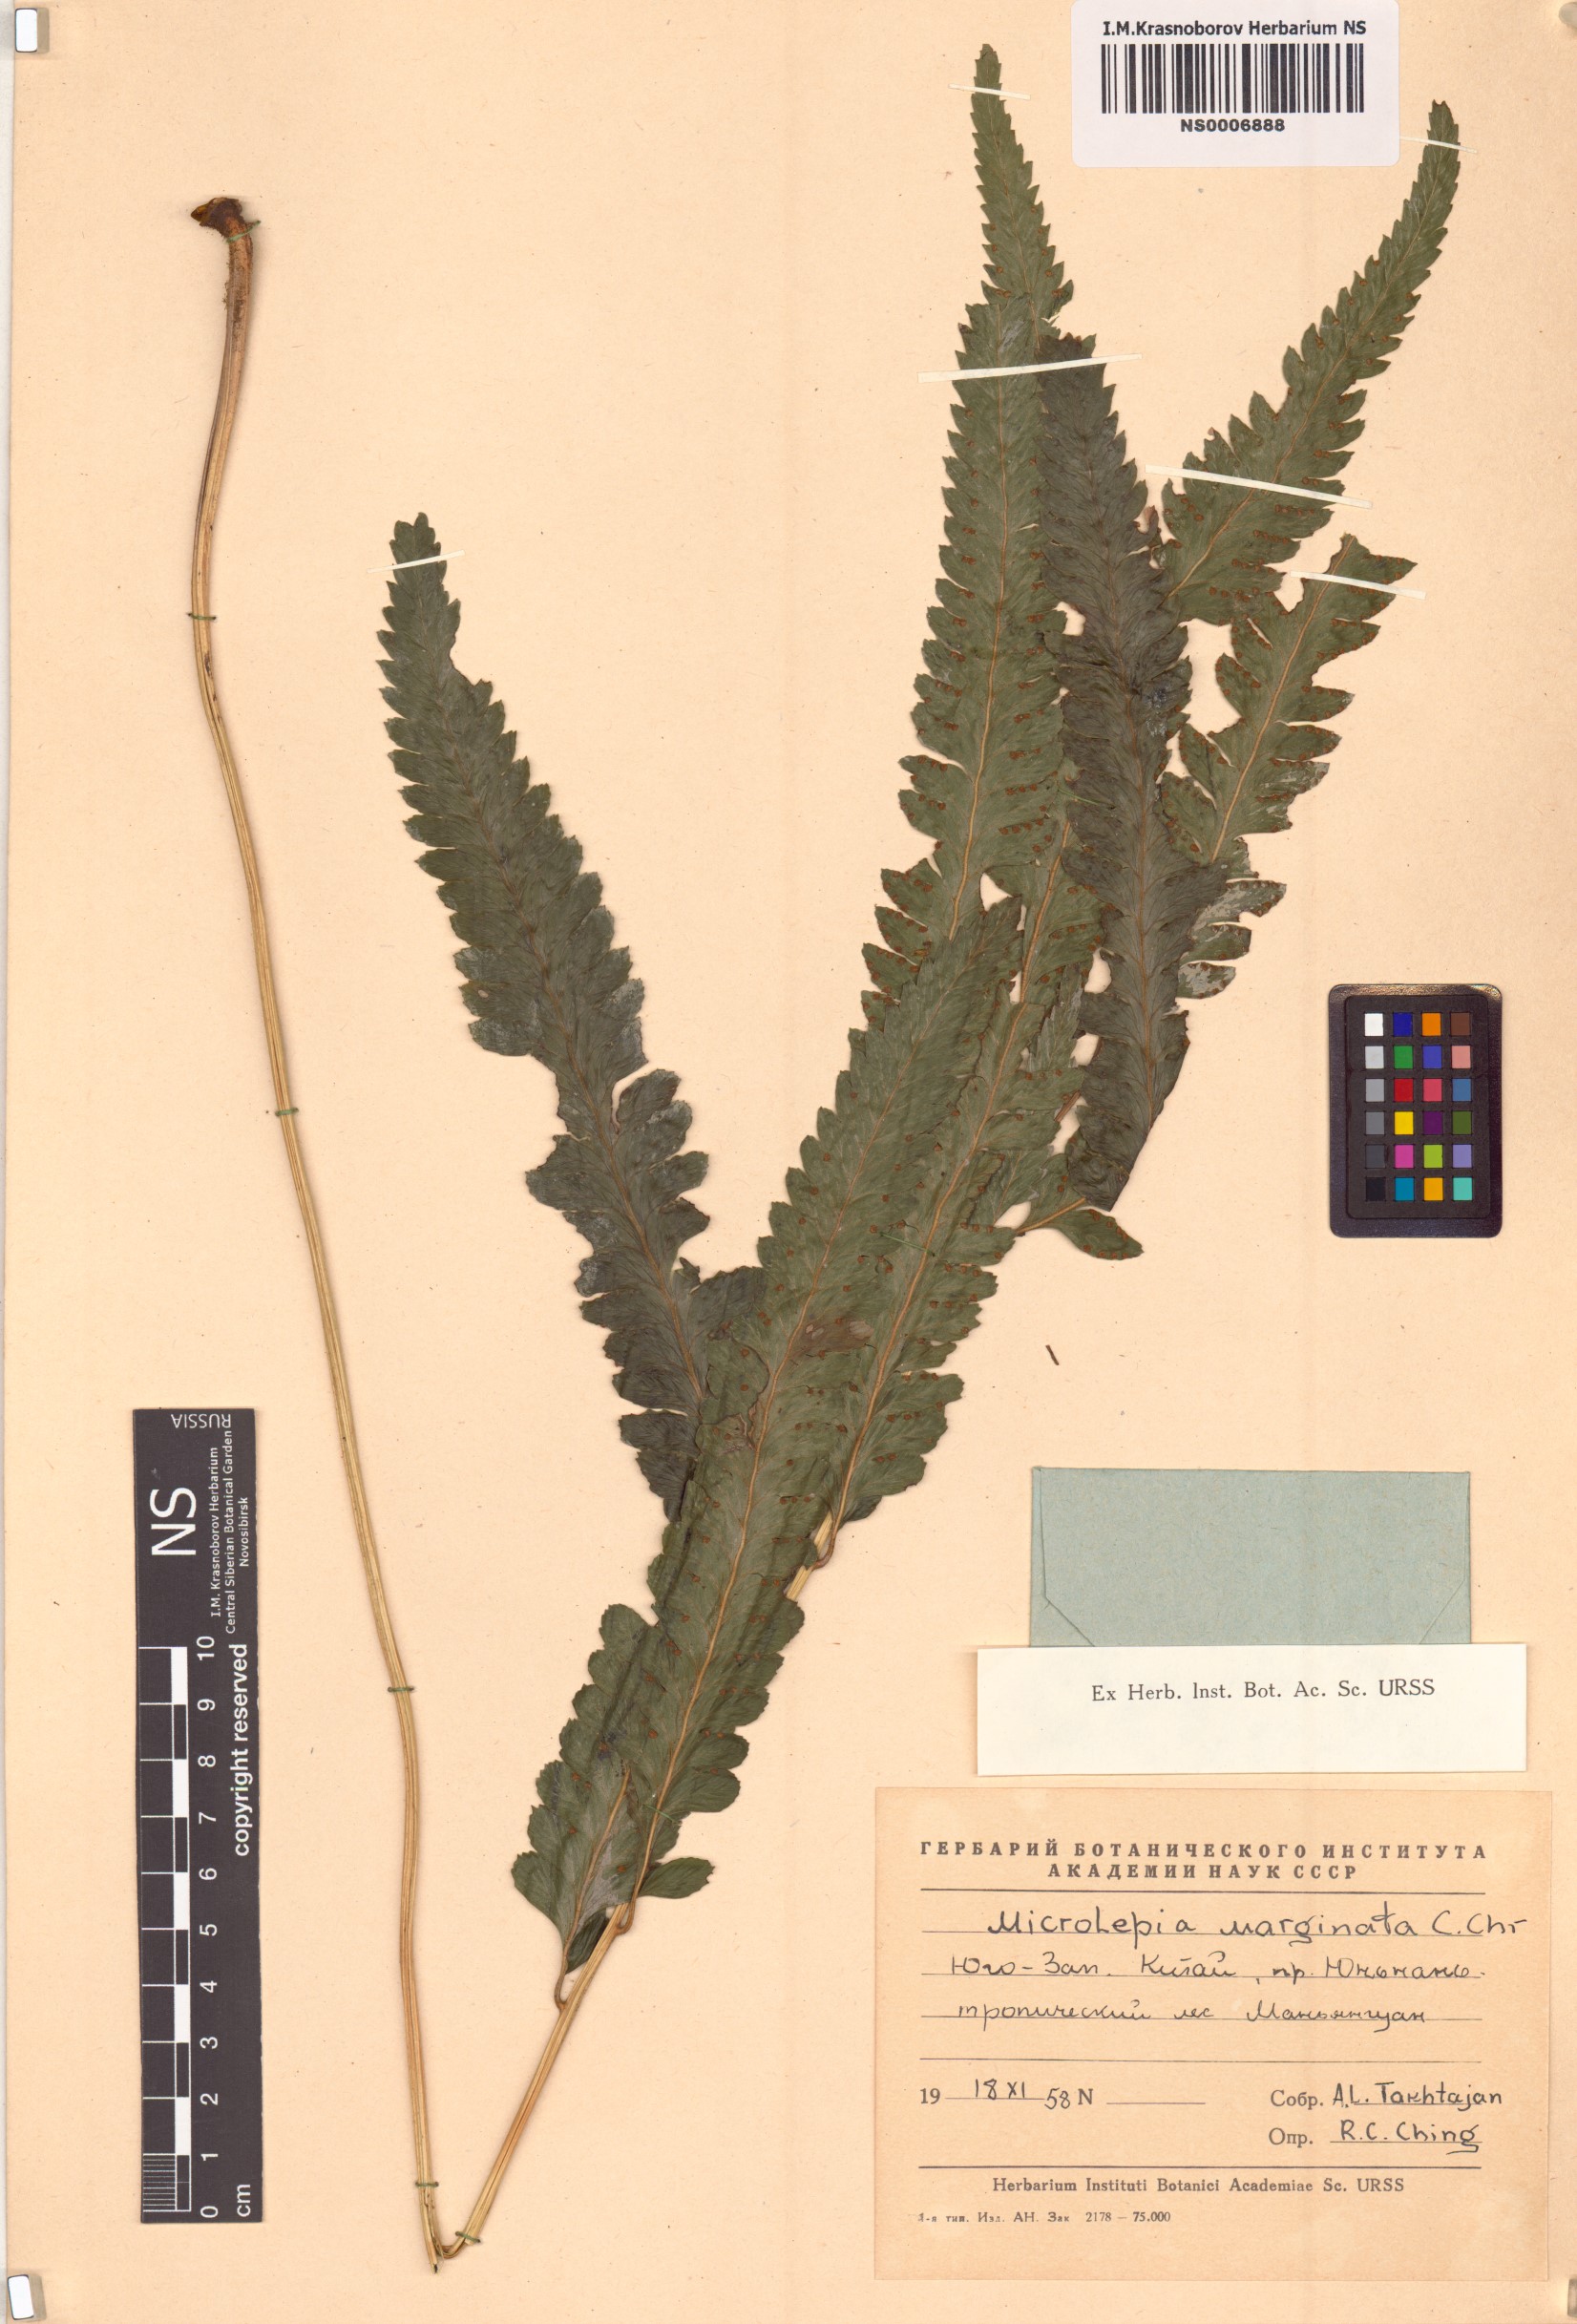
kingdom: Plantae
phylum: Tracheophyta
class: Polypodiopsida
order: Polypodiales
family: Dennstaedtiaceae
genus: Microlepia
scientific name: Microlepia marginata
